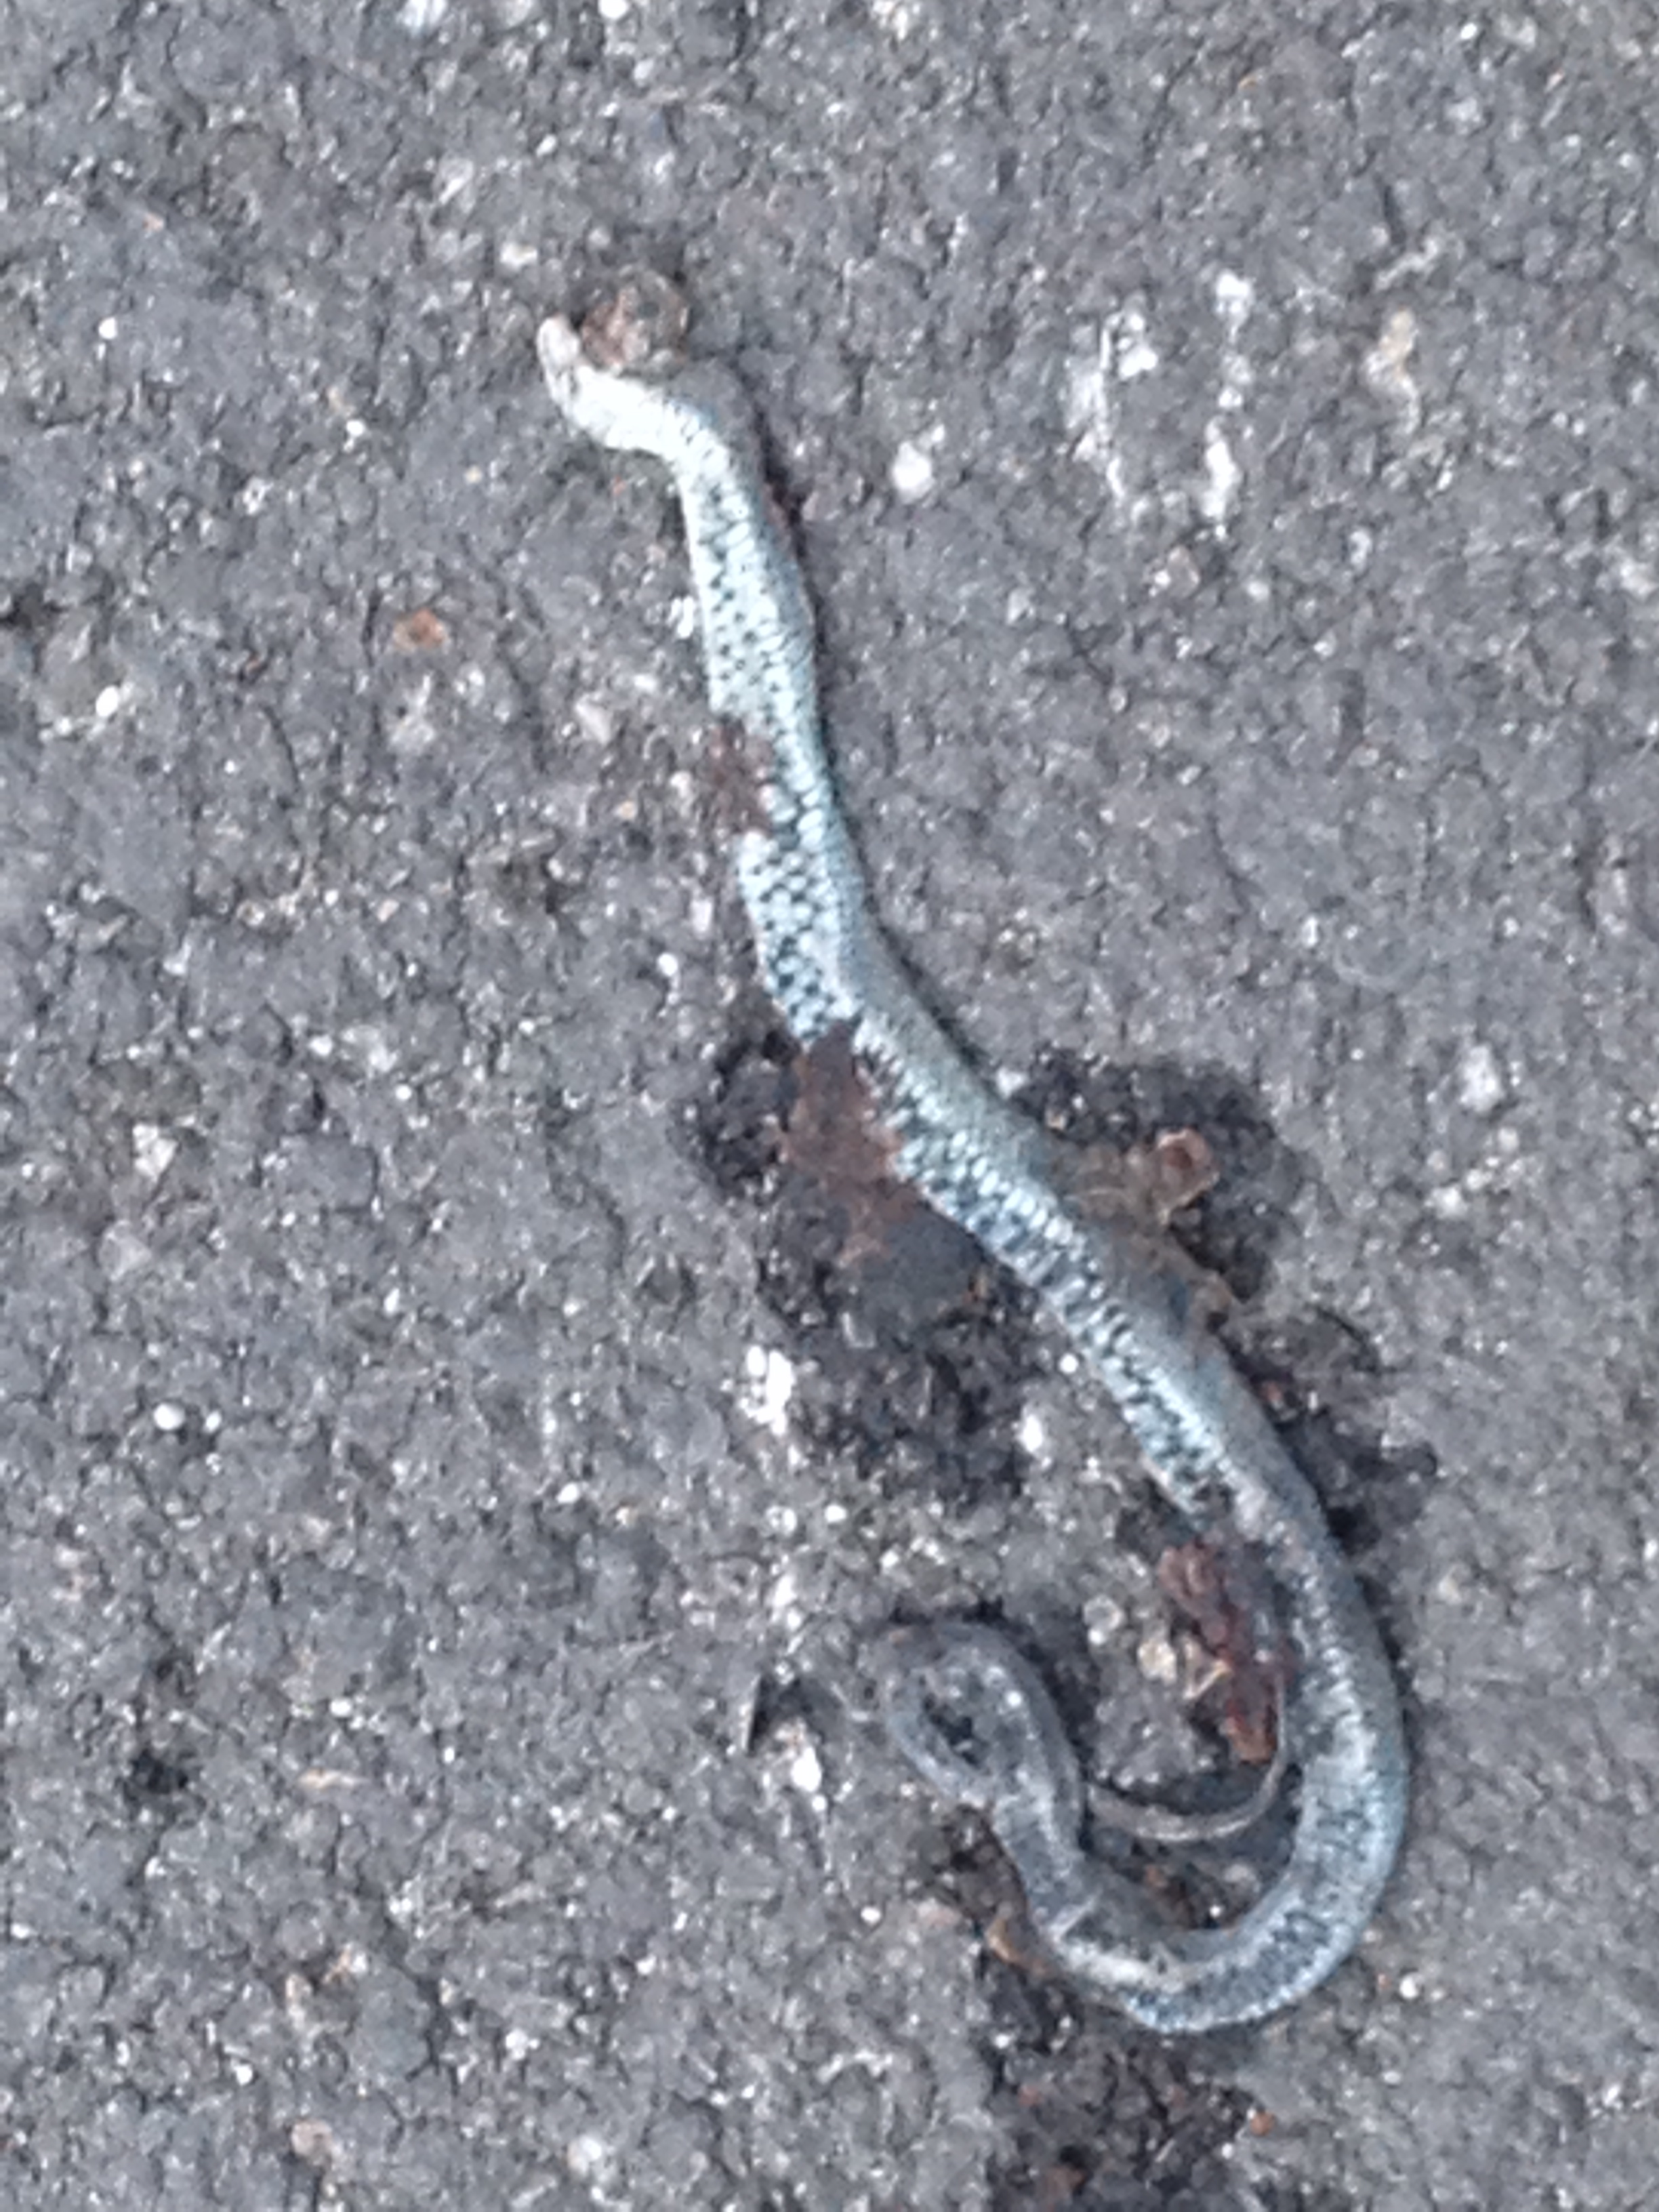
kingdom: Animalia
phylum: Chordata
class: Squamata
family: Colubridae
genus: Natrix
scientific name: Natrix natrix
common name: Grass snake
